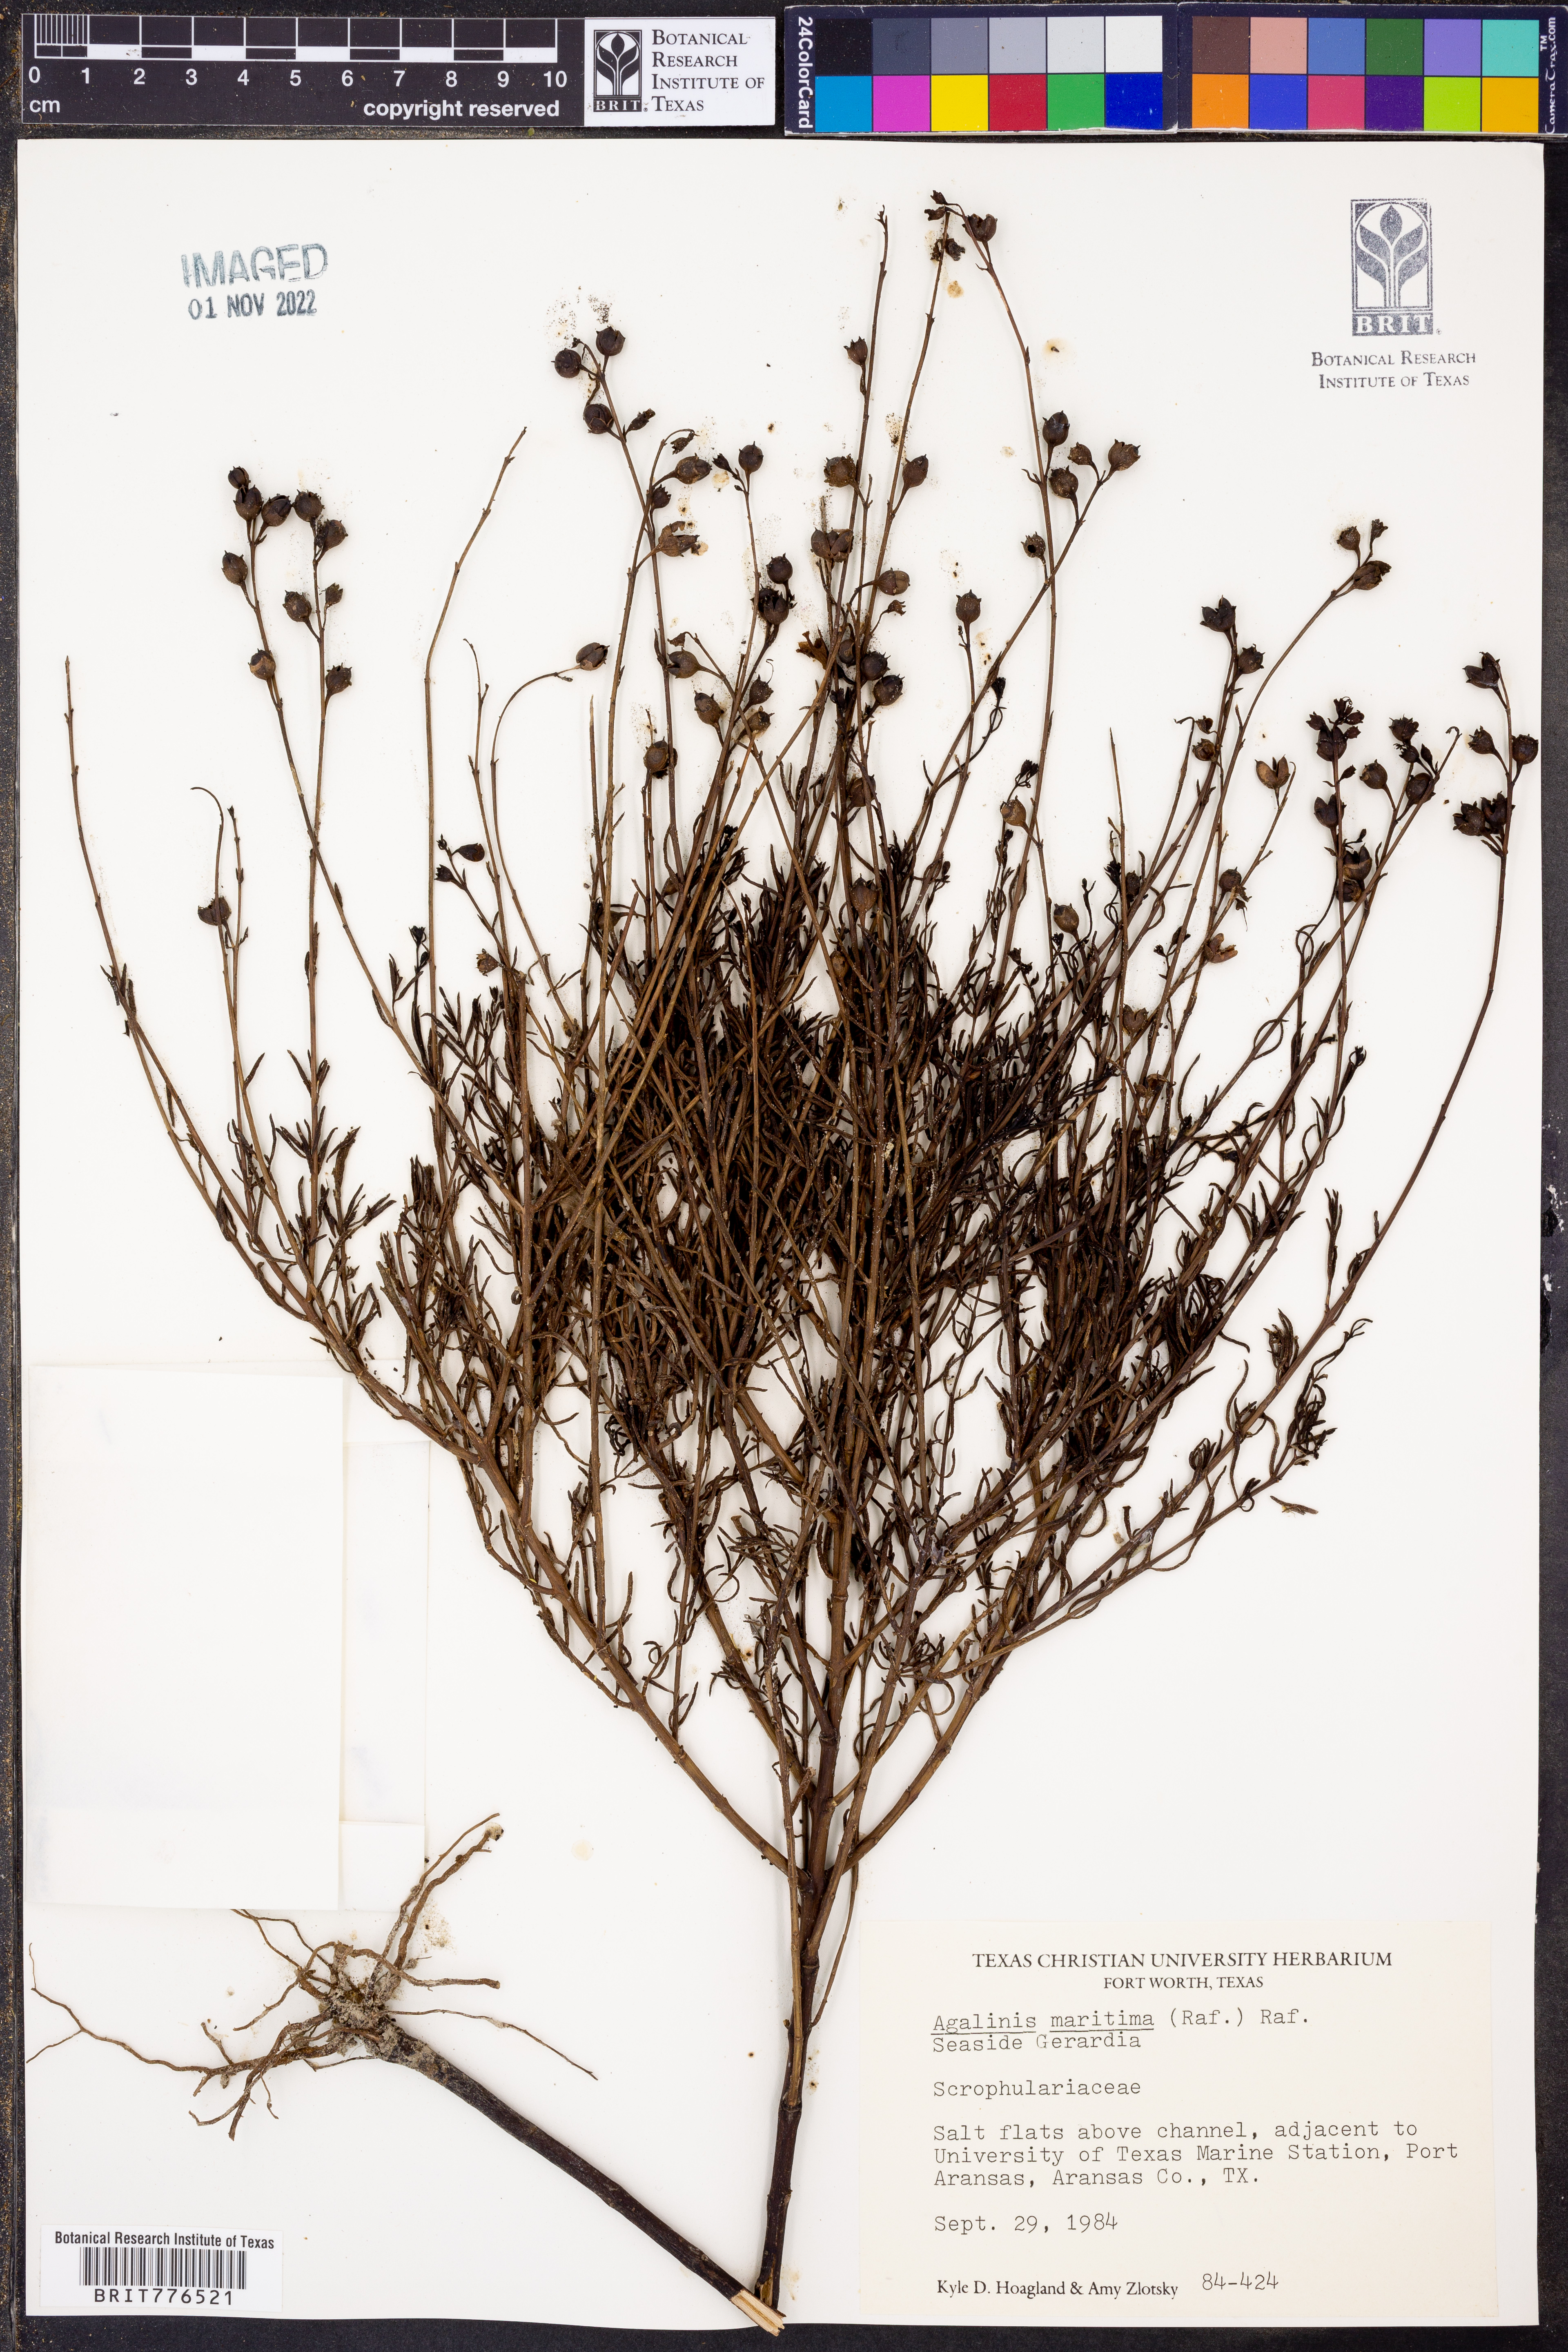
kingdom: Plantae
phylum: Tracheophyta
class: Magnoliopsida
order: Lamiales
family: Orobanchaceae
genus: Agalinis
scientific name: Agalinis maritima
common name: Saltmarsh agalinis
